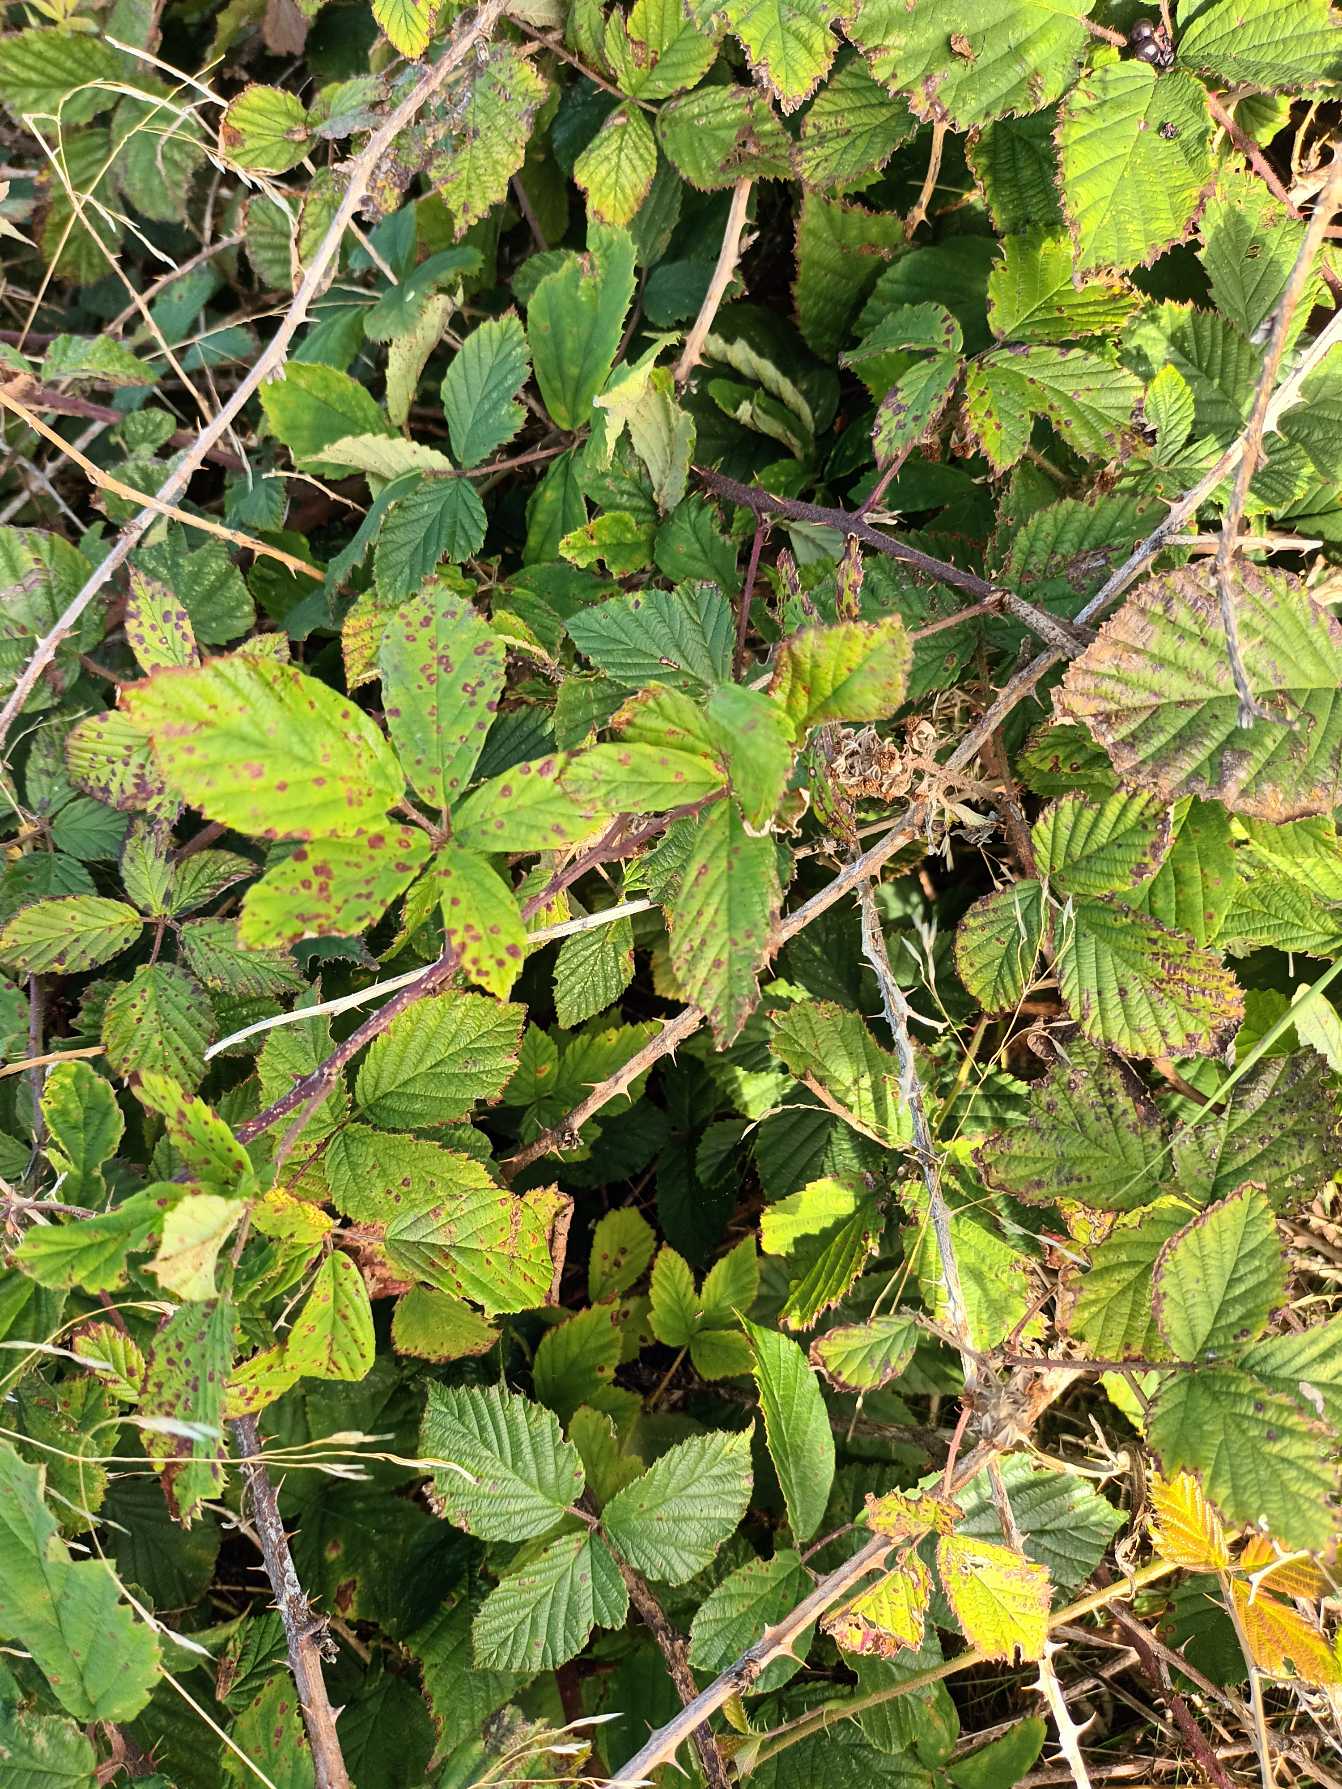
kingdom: Plantae
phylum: Tracheophyta
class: Magnoliopsida
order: Rosales
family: Rosaceae
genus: Rubus
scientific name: Rubus radula
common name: Rasperu brombær
